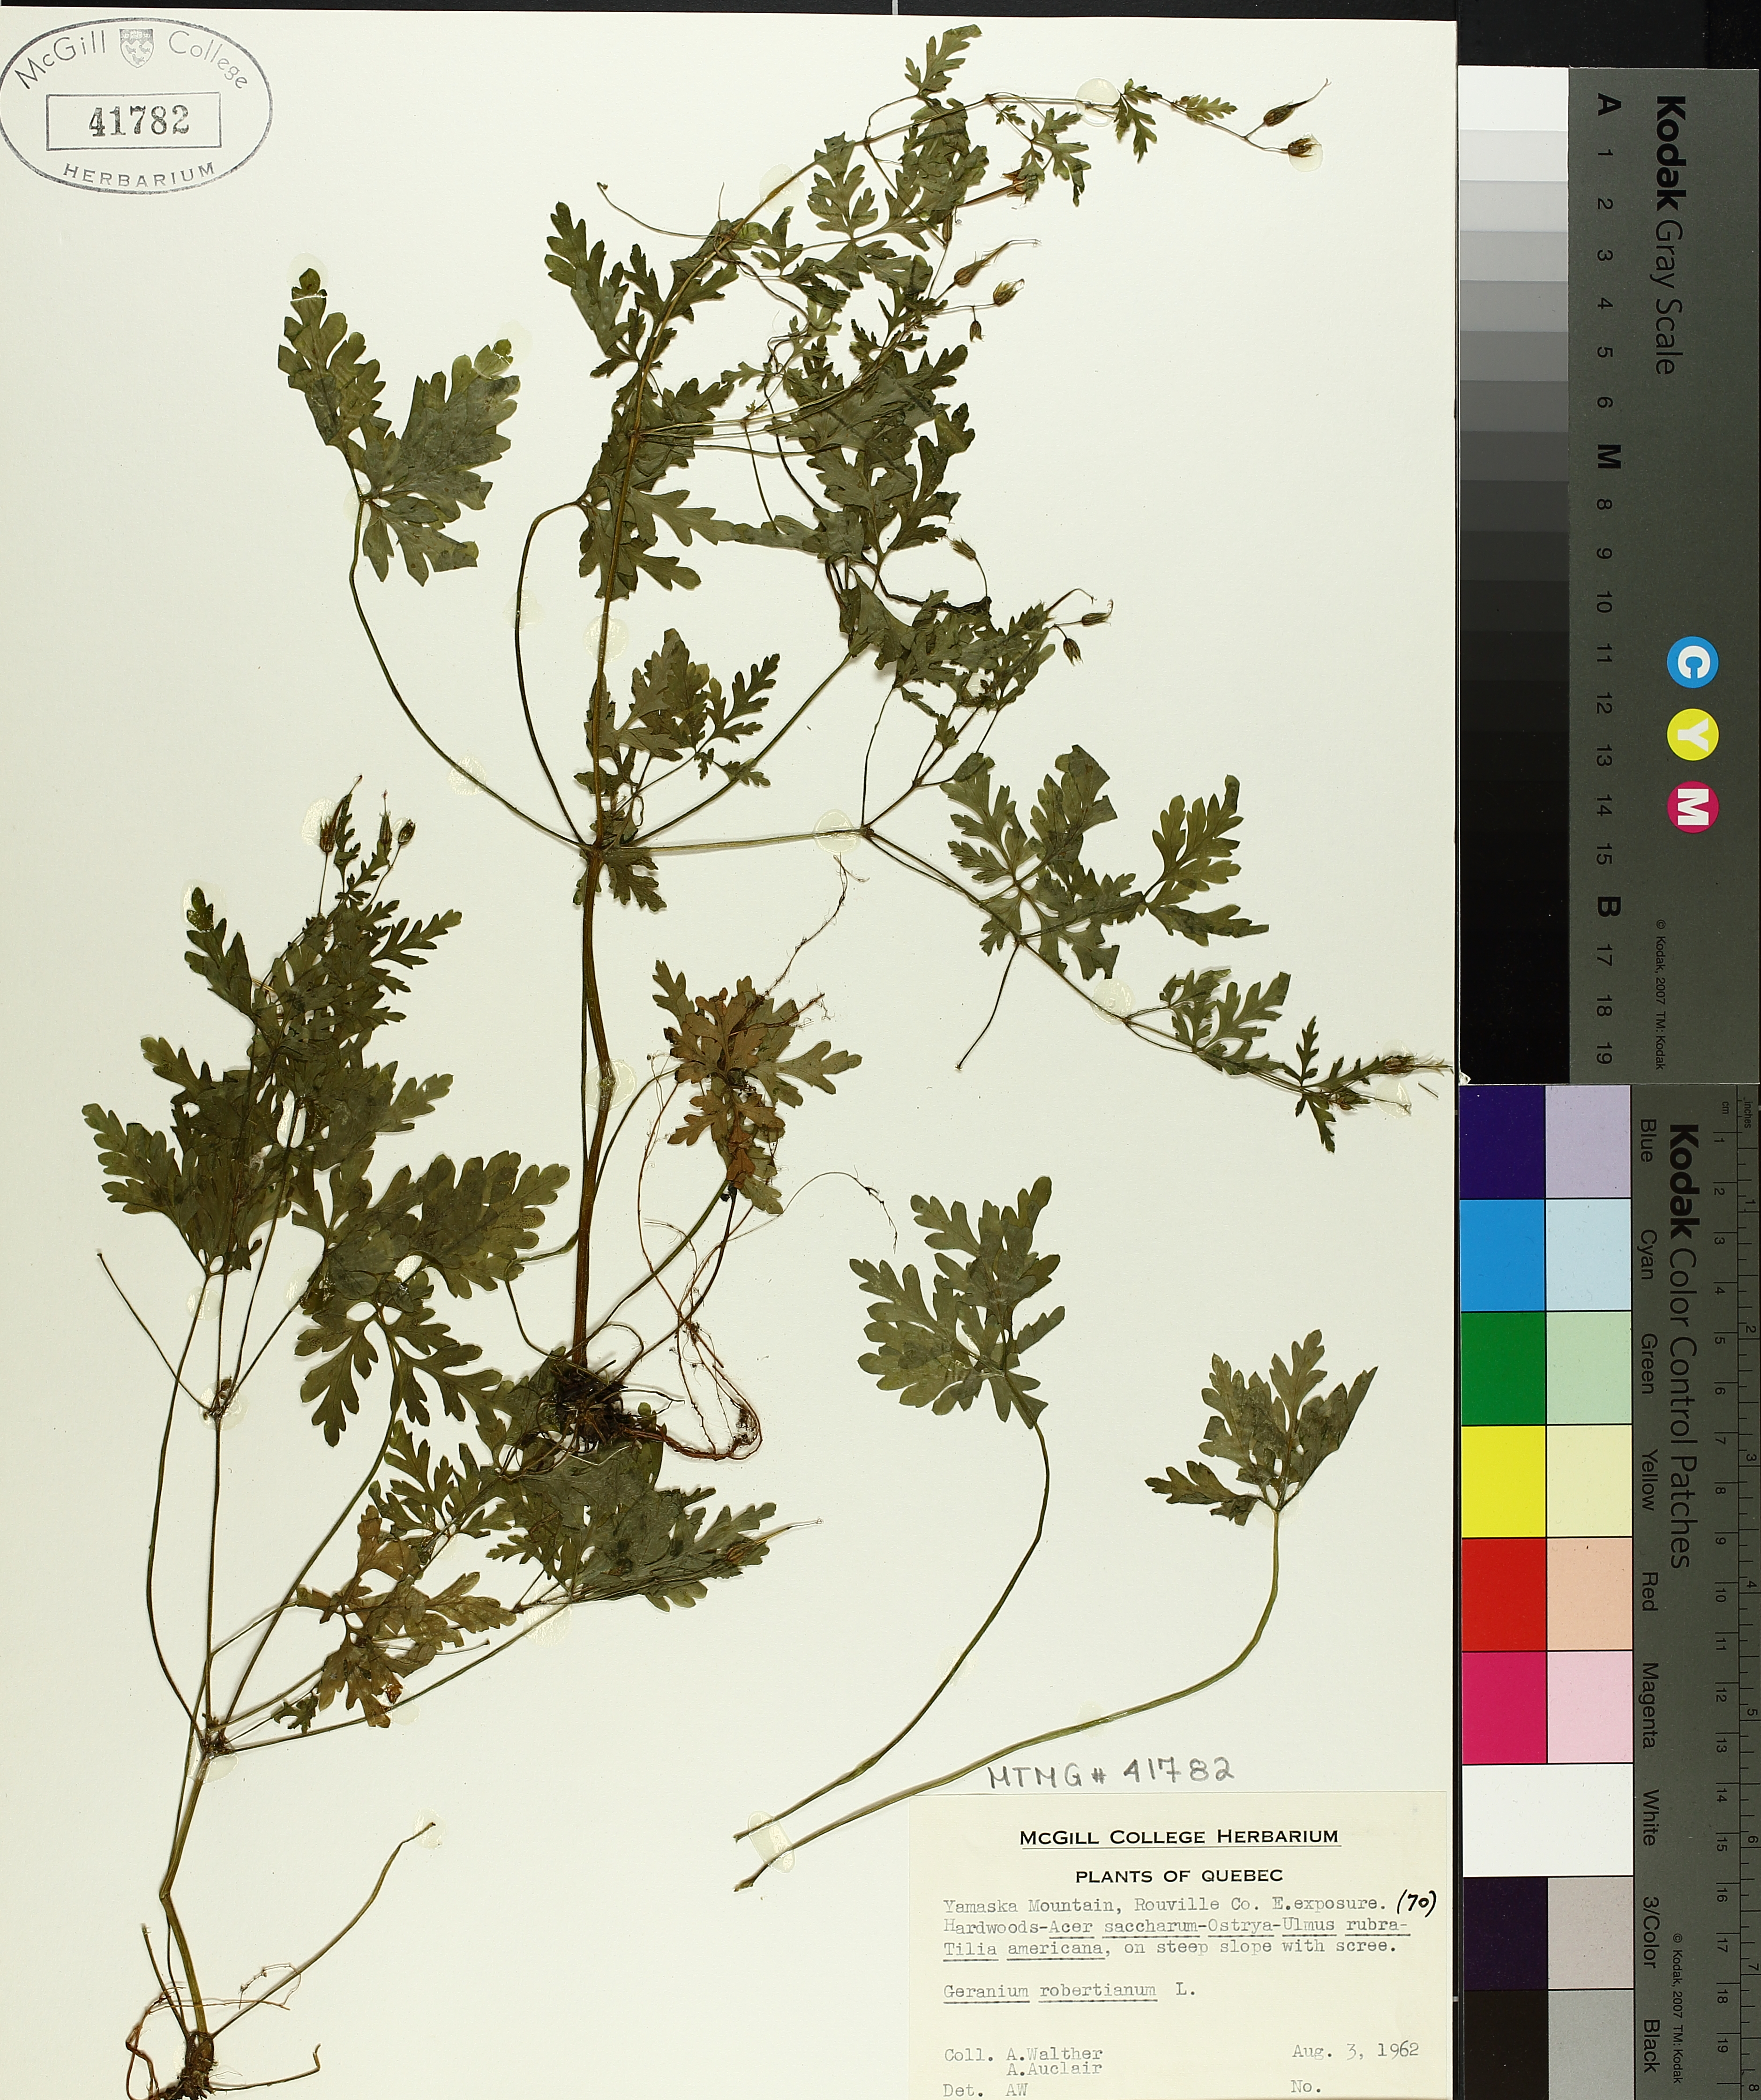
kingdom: Plantae
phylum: Tracheophyta
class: Magnoliopsida
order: Geraniales
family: Geraniaceae
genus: Geranium
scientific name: Geranium robertianum
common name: Herb-robert
